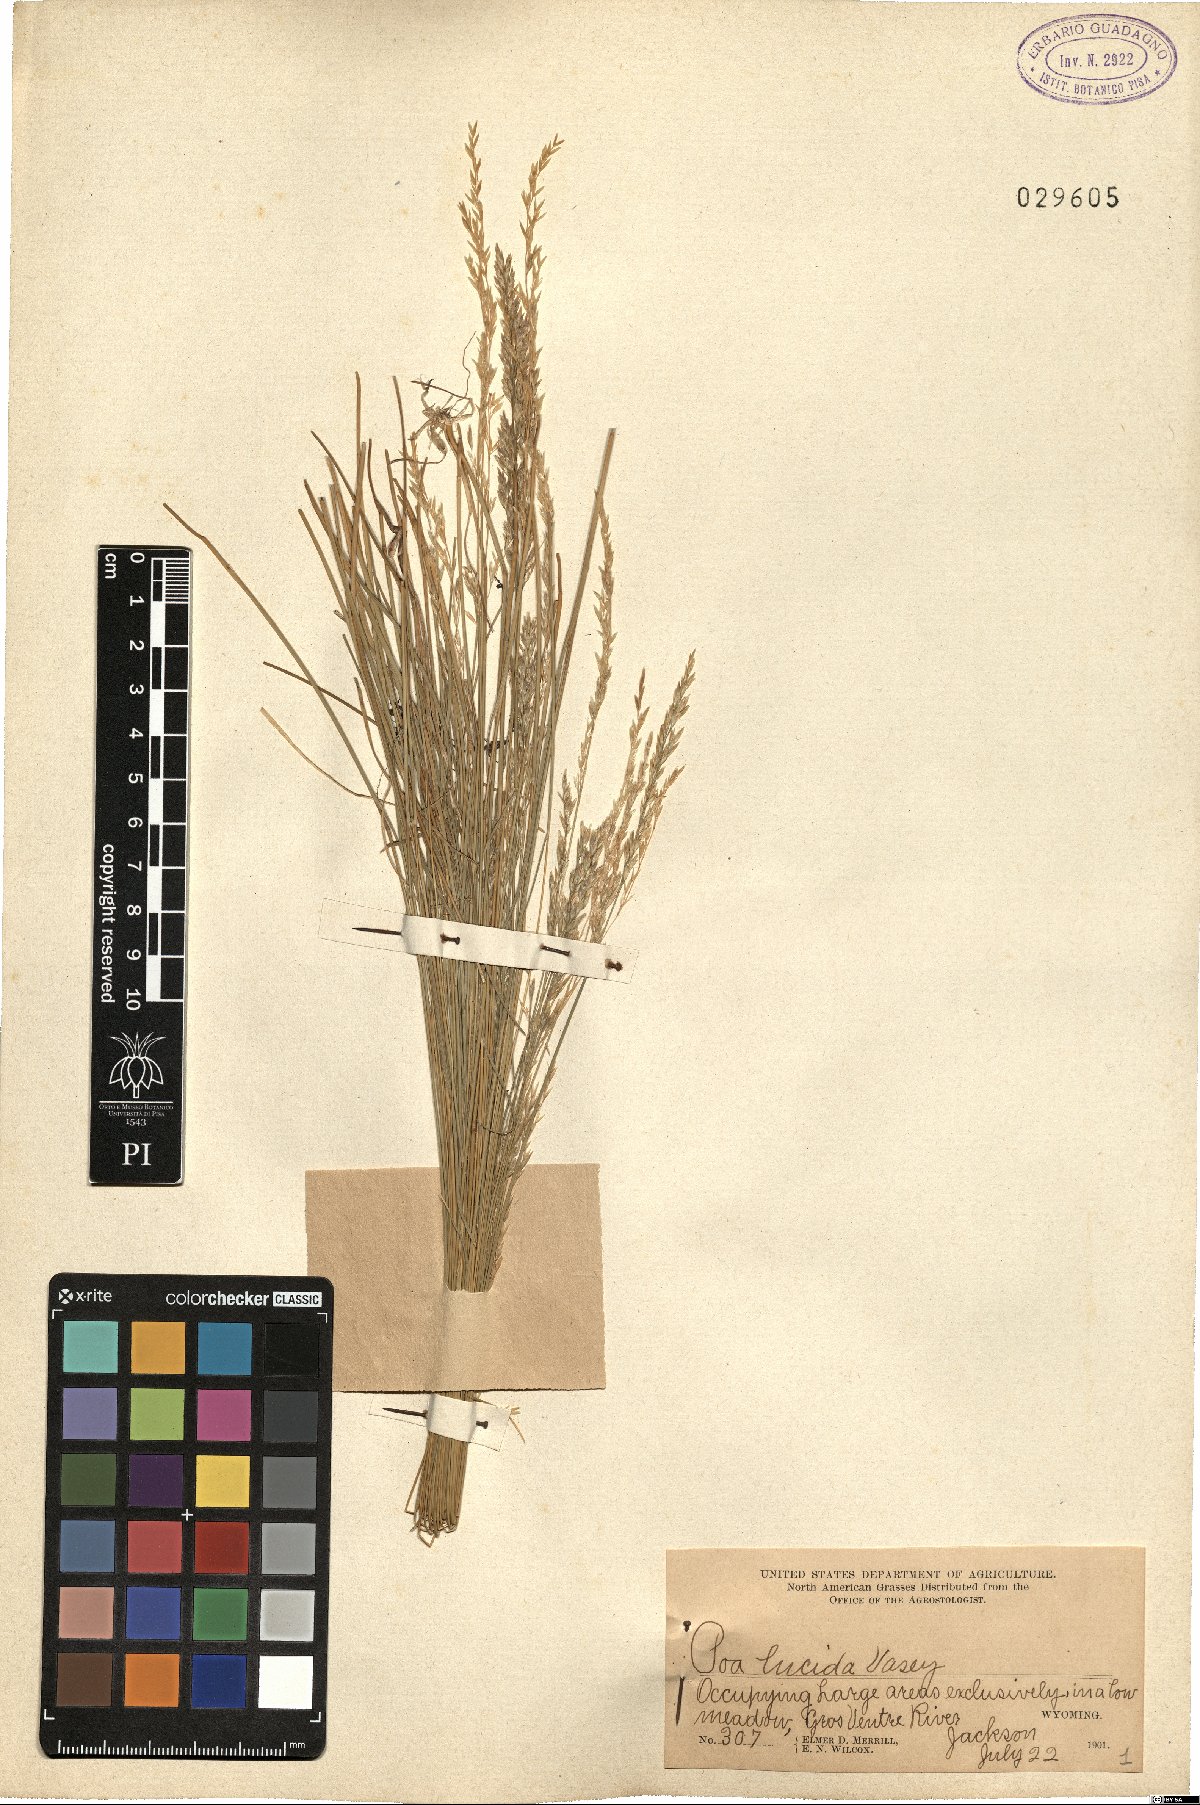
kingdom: Plantae
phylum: Tracheophyta
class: Liliopsida
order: Poales
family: Poaceae
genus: Poa
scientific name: Poa secunda
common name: Sandberg bluegrass
